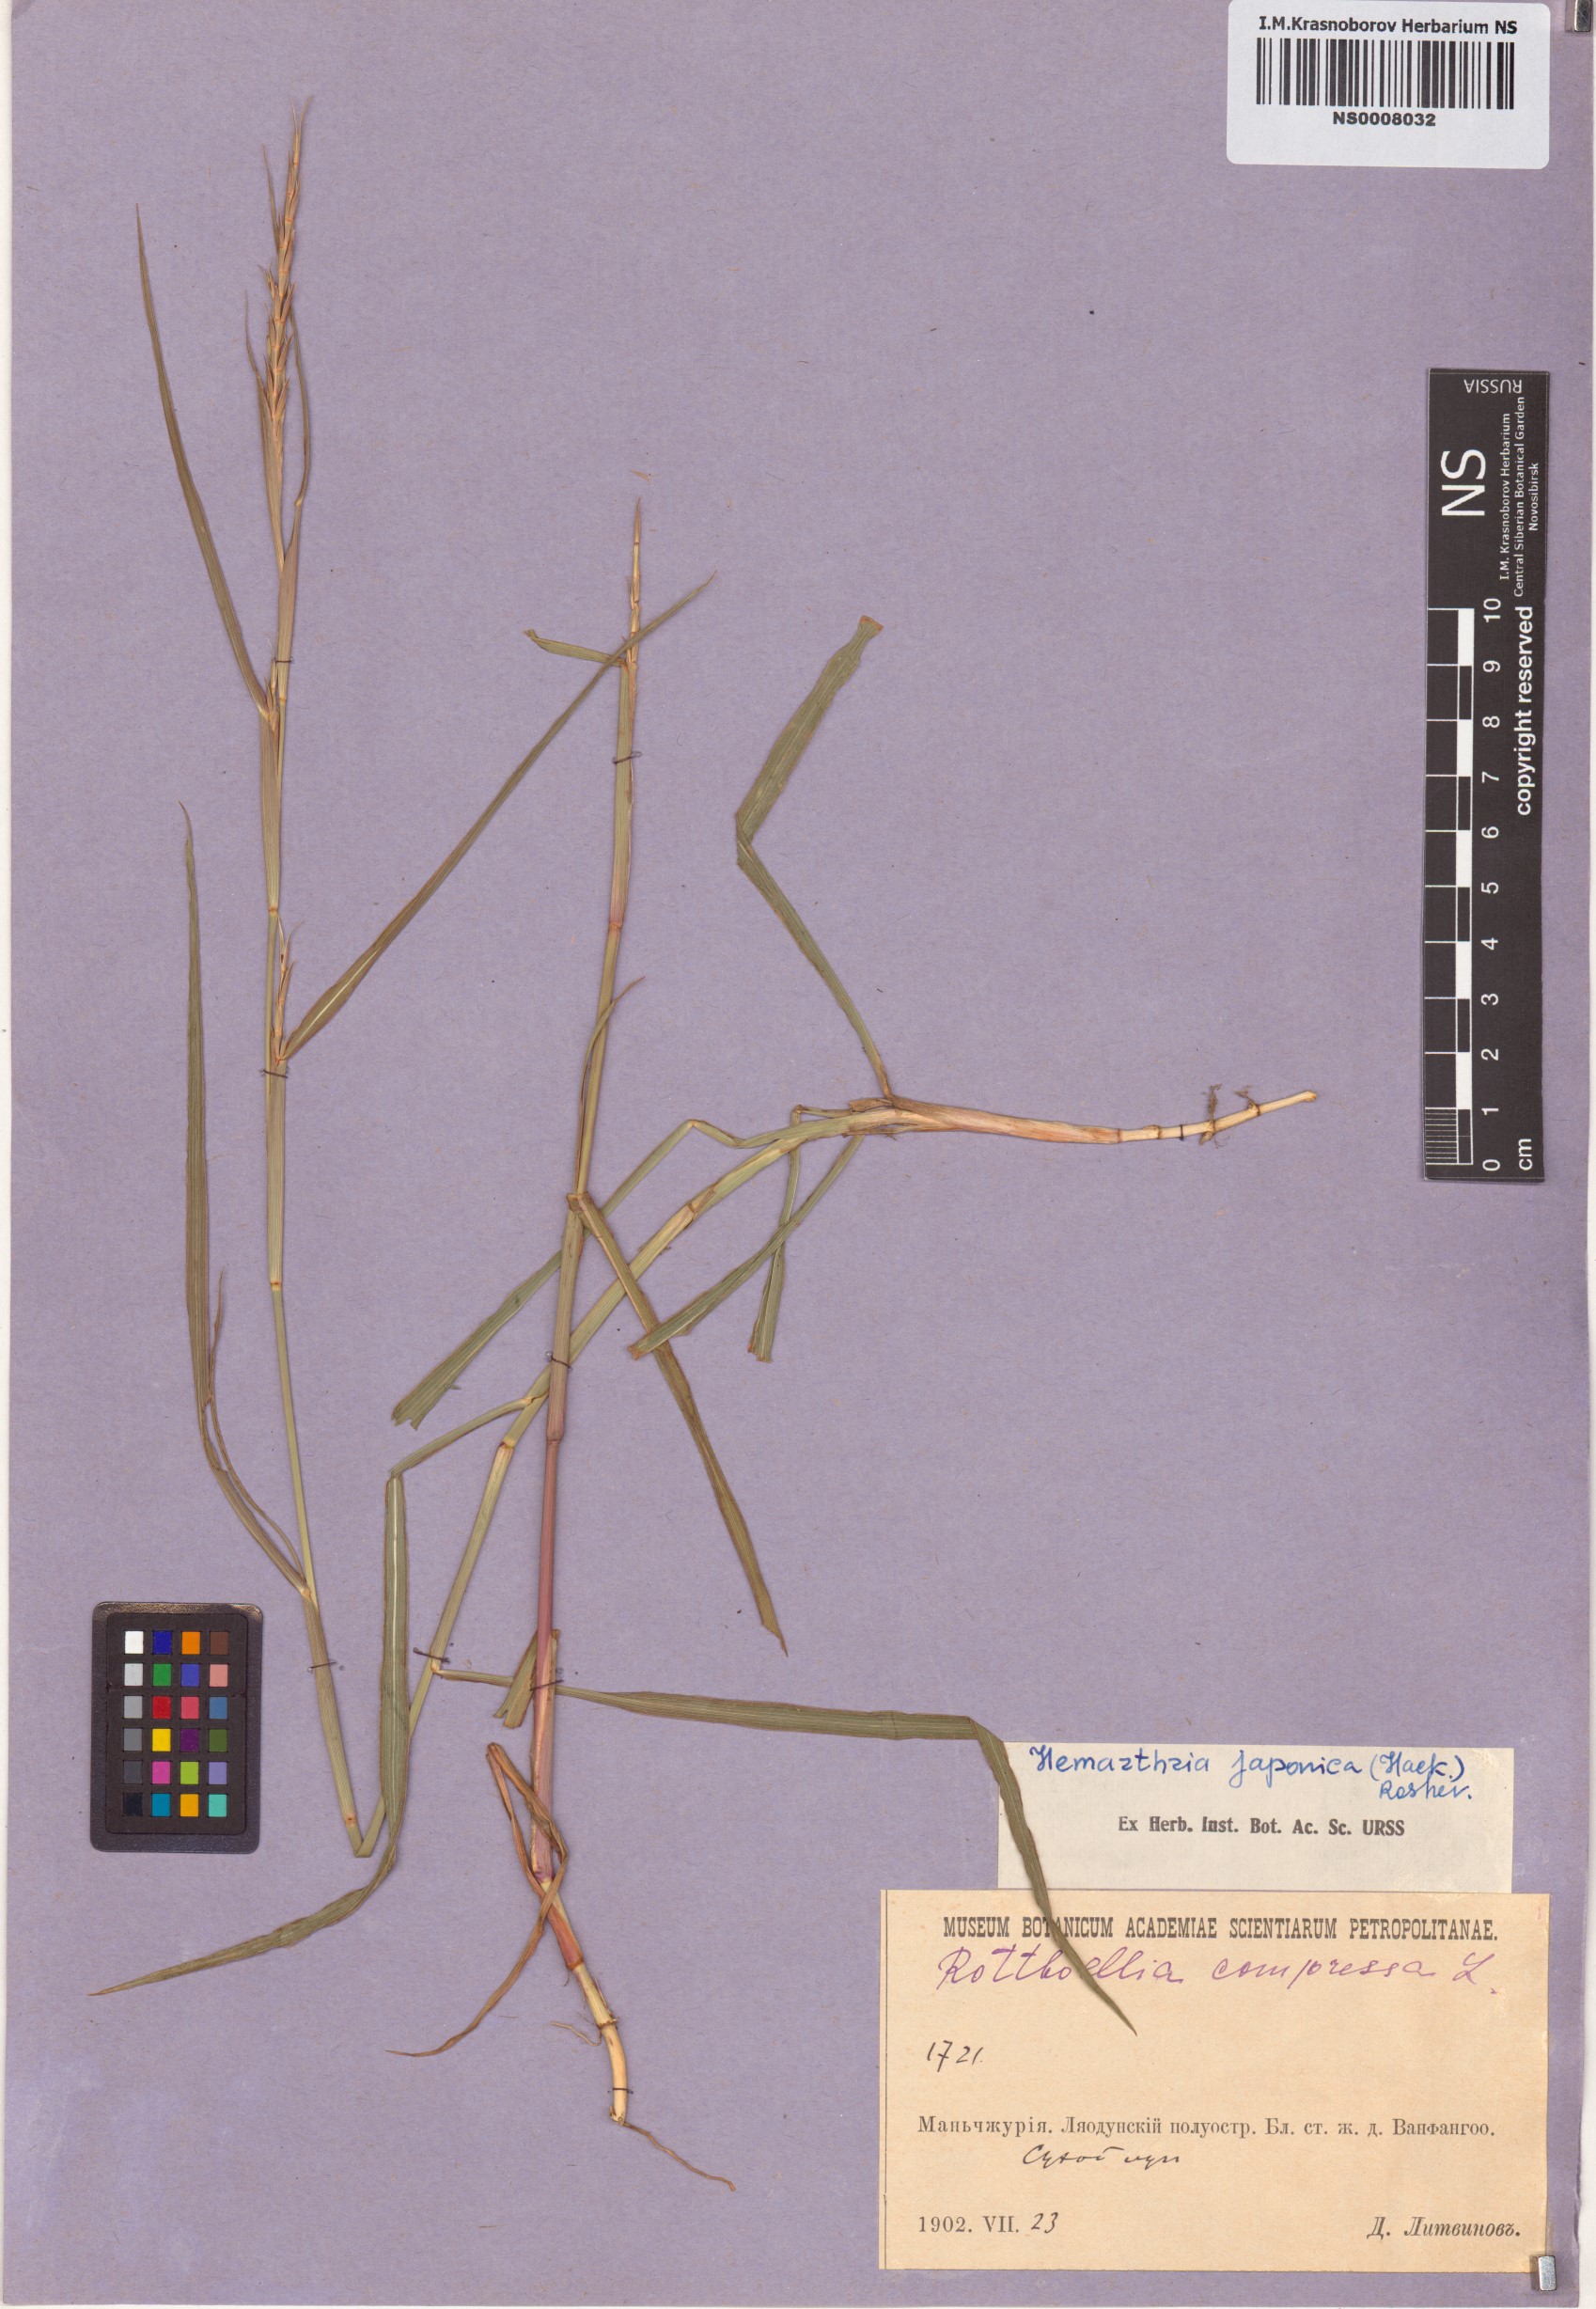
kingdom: Plantae
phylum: Tracheophyta
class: Liliopsida
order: Poales
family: Poaceae
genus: Hemarthria
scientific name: Hemarthria sibirica
